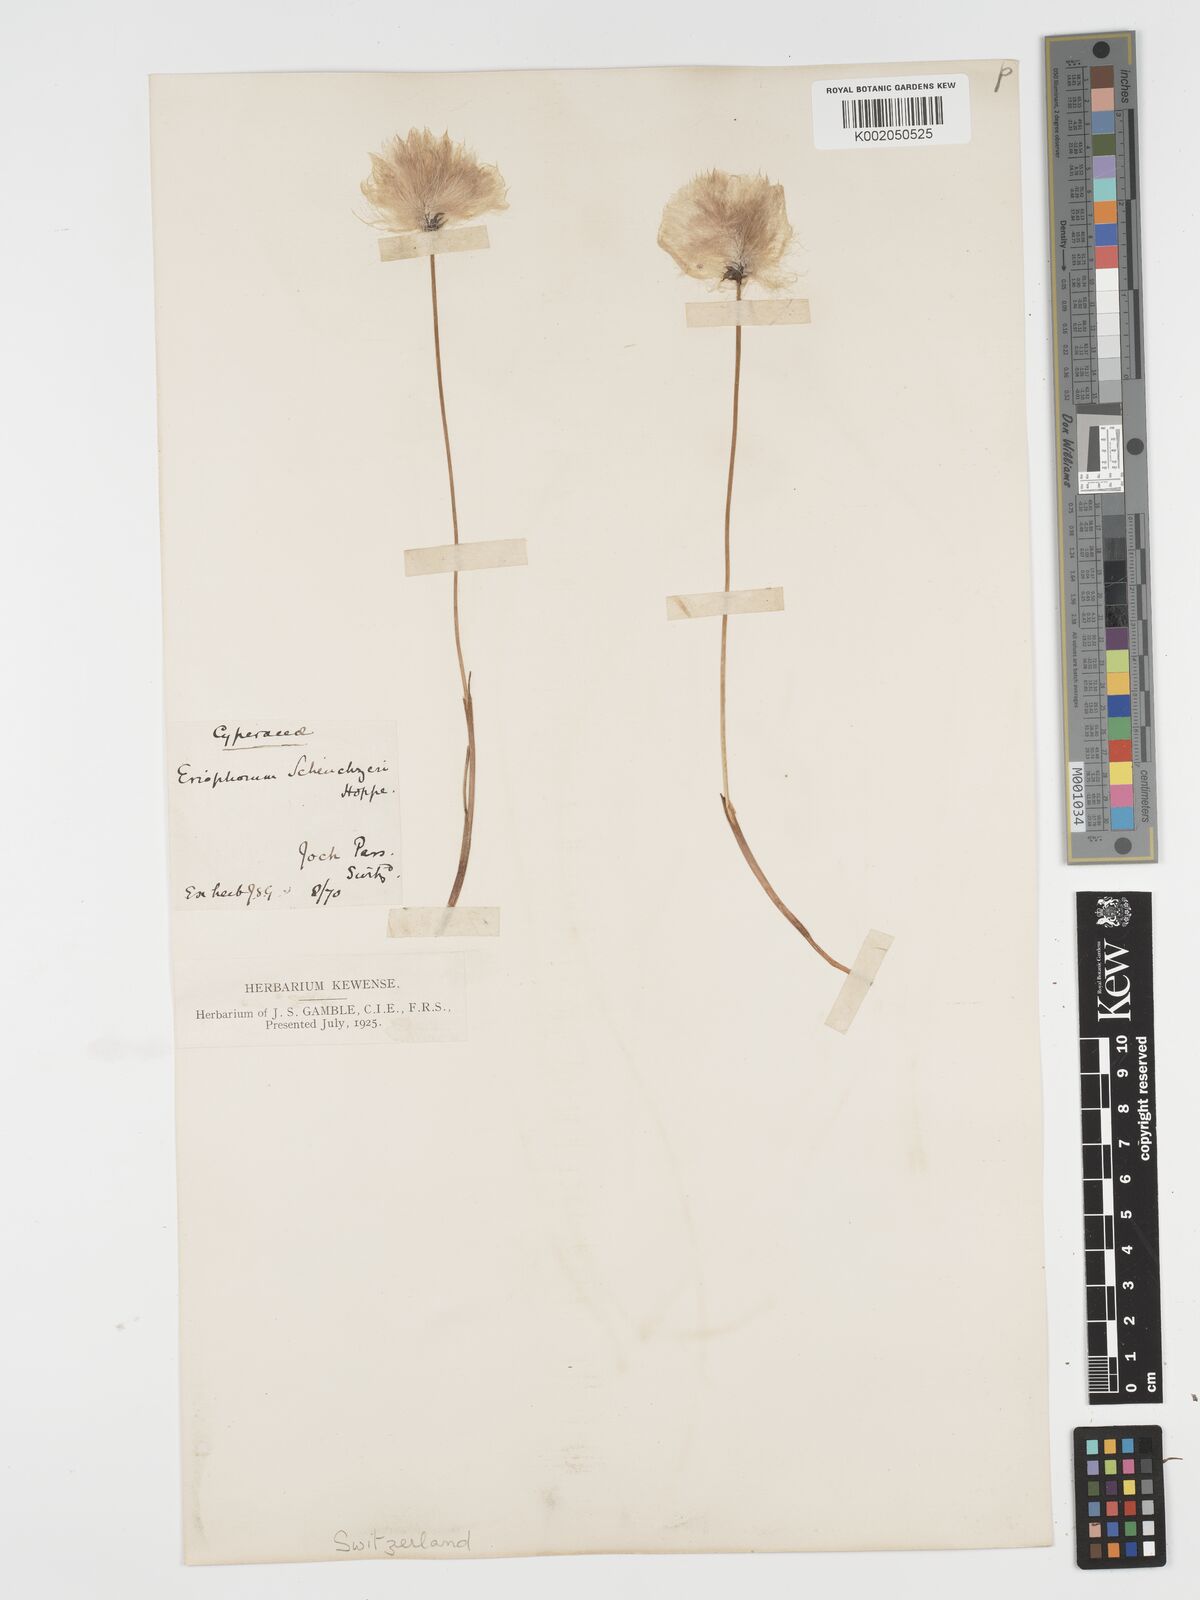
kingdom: Plantae
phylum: Tracheophyta
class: Liliopsida
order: Poales
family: Cyperaceae
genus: Eriophorum
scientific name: Eriophorum scheuchzeri
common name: Scheuchzer's cottongrass
